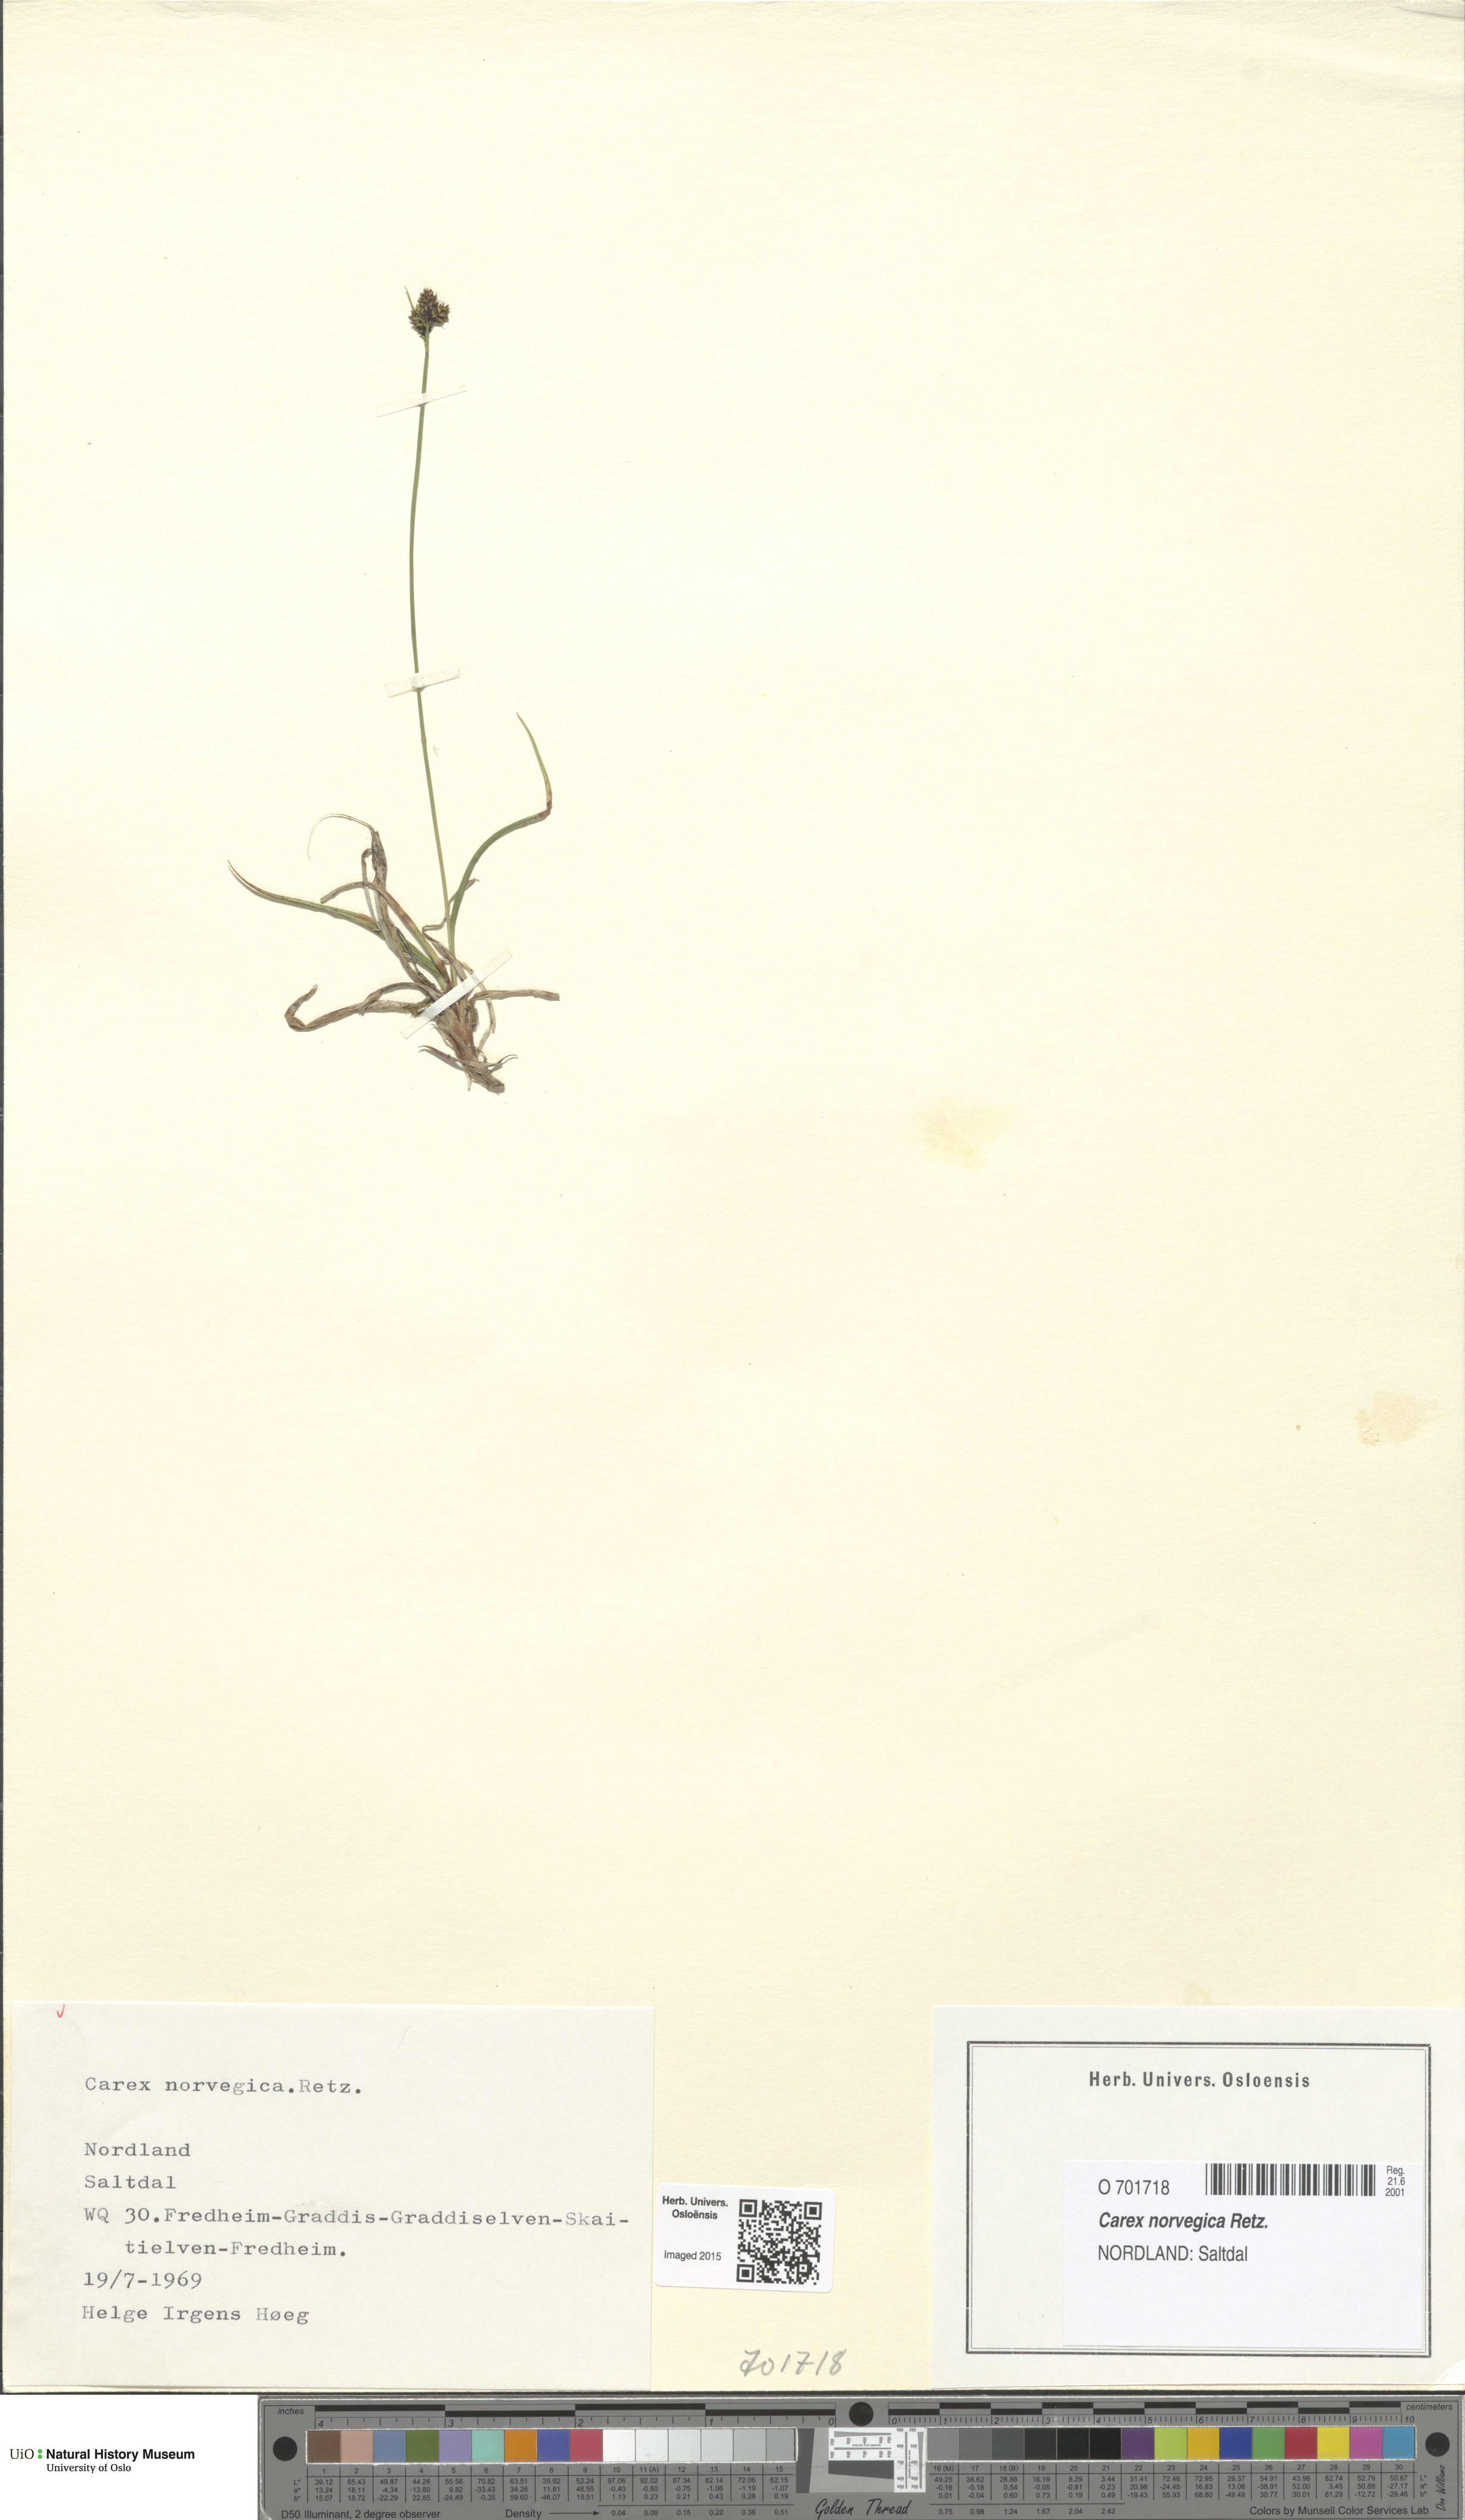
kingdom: Plantae
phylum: Tracheophyta
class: Liliopsida
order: Poales
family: Cyperaceae
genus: Carex
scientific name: Carex norvegica
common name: Close-headed alpine-sedge
